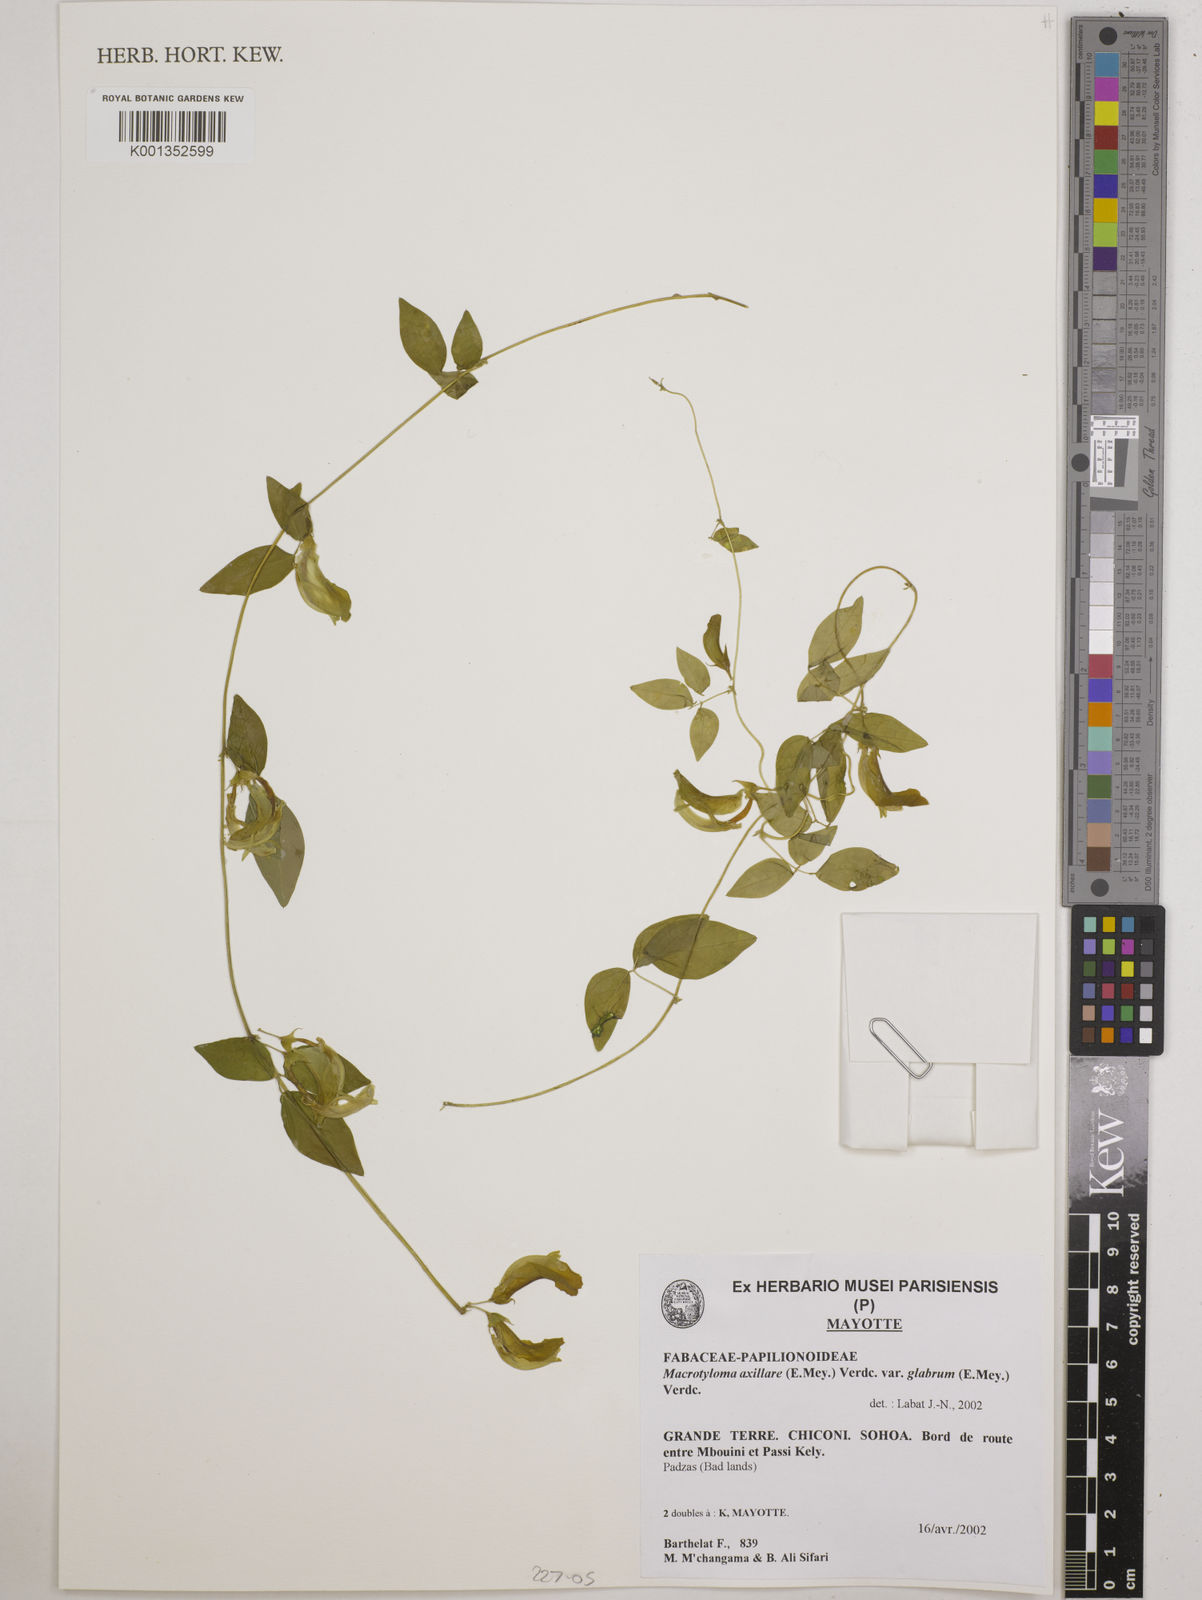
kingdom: Plantae
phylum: Tracheophyta
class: Magnoliopsida
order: Fabales
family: Fabaceae
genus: Macrotyloma
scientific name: Macrotyloma
